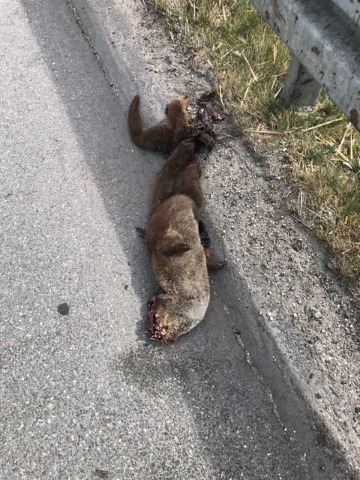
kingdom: Animalia
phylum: Chordata
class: Mammalia
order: Carnivora
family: Mustelidae
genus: Lutra
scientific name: Lutra lutra
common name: Odder
